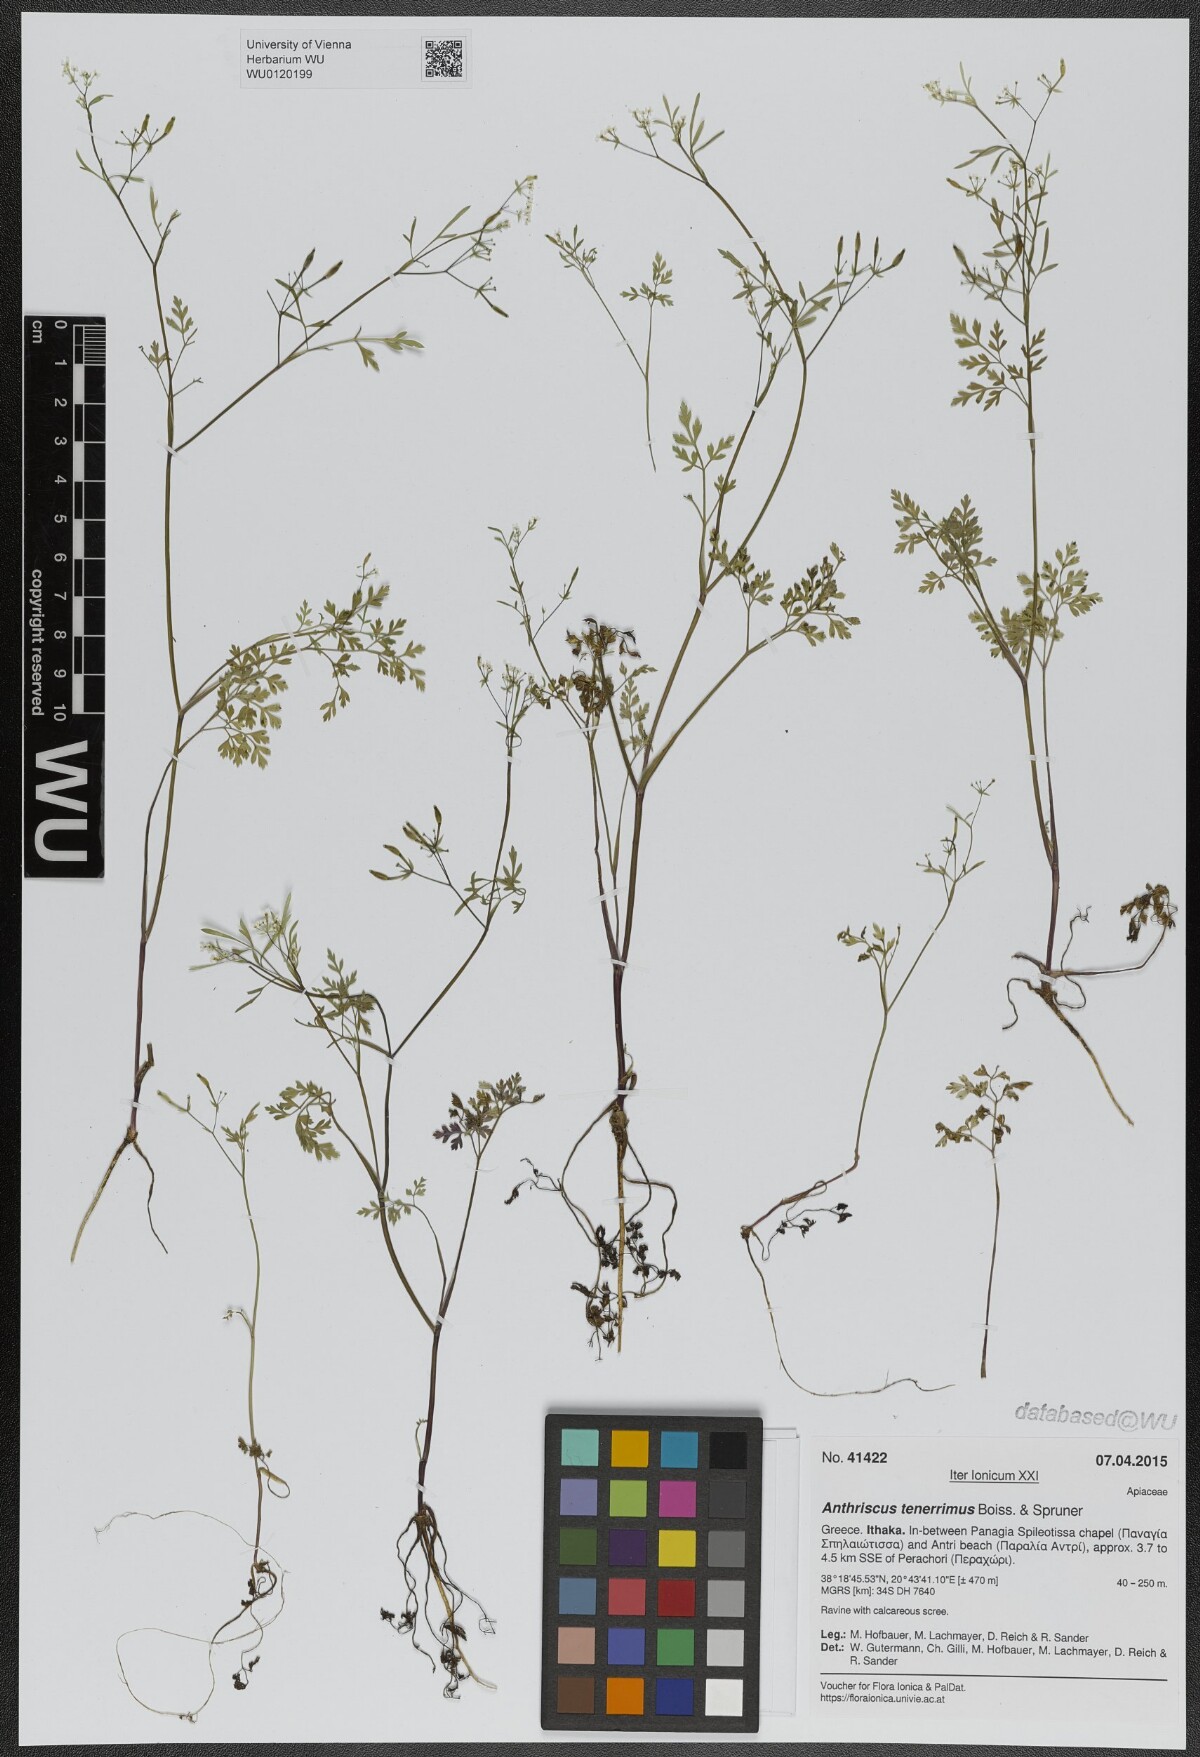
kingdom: Plantae
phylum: Tracheophyta
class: Magnoliopsida
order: Apiales
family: Apiaceae
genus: Anthriscus
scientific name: Anthriscus tenerrima
